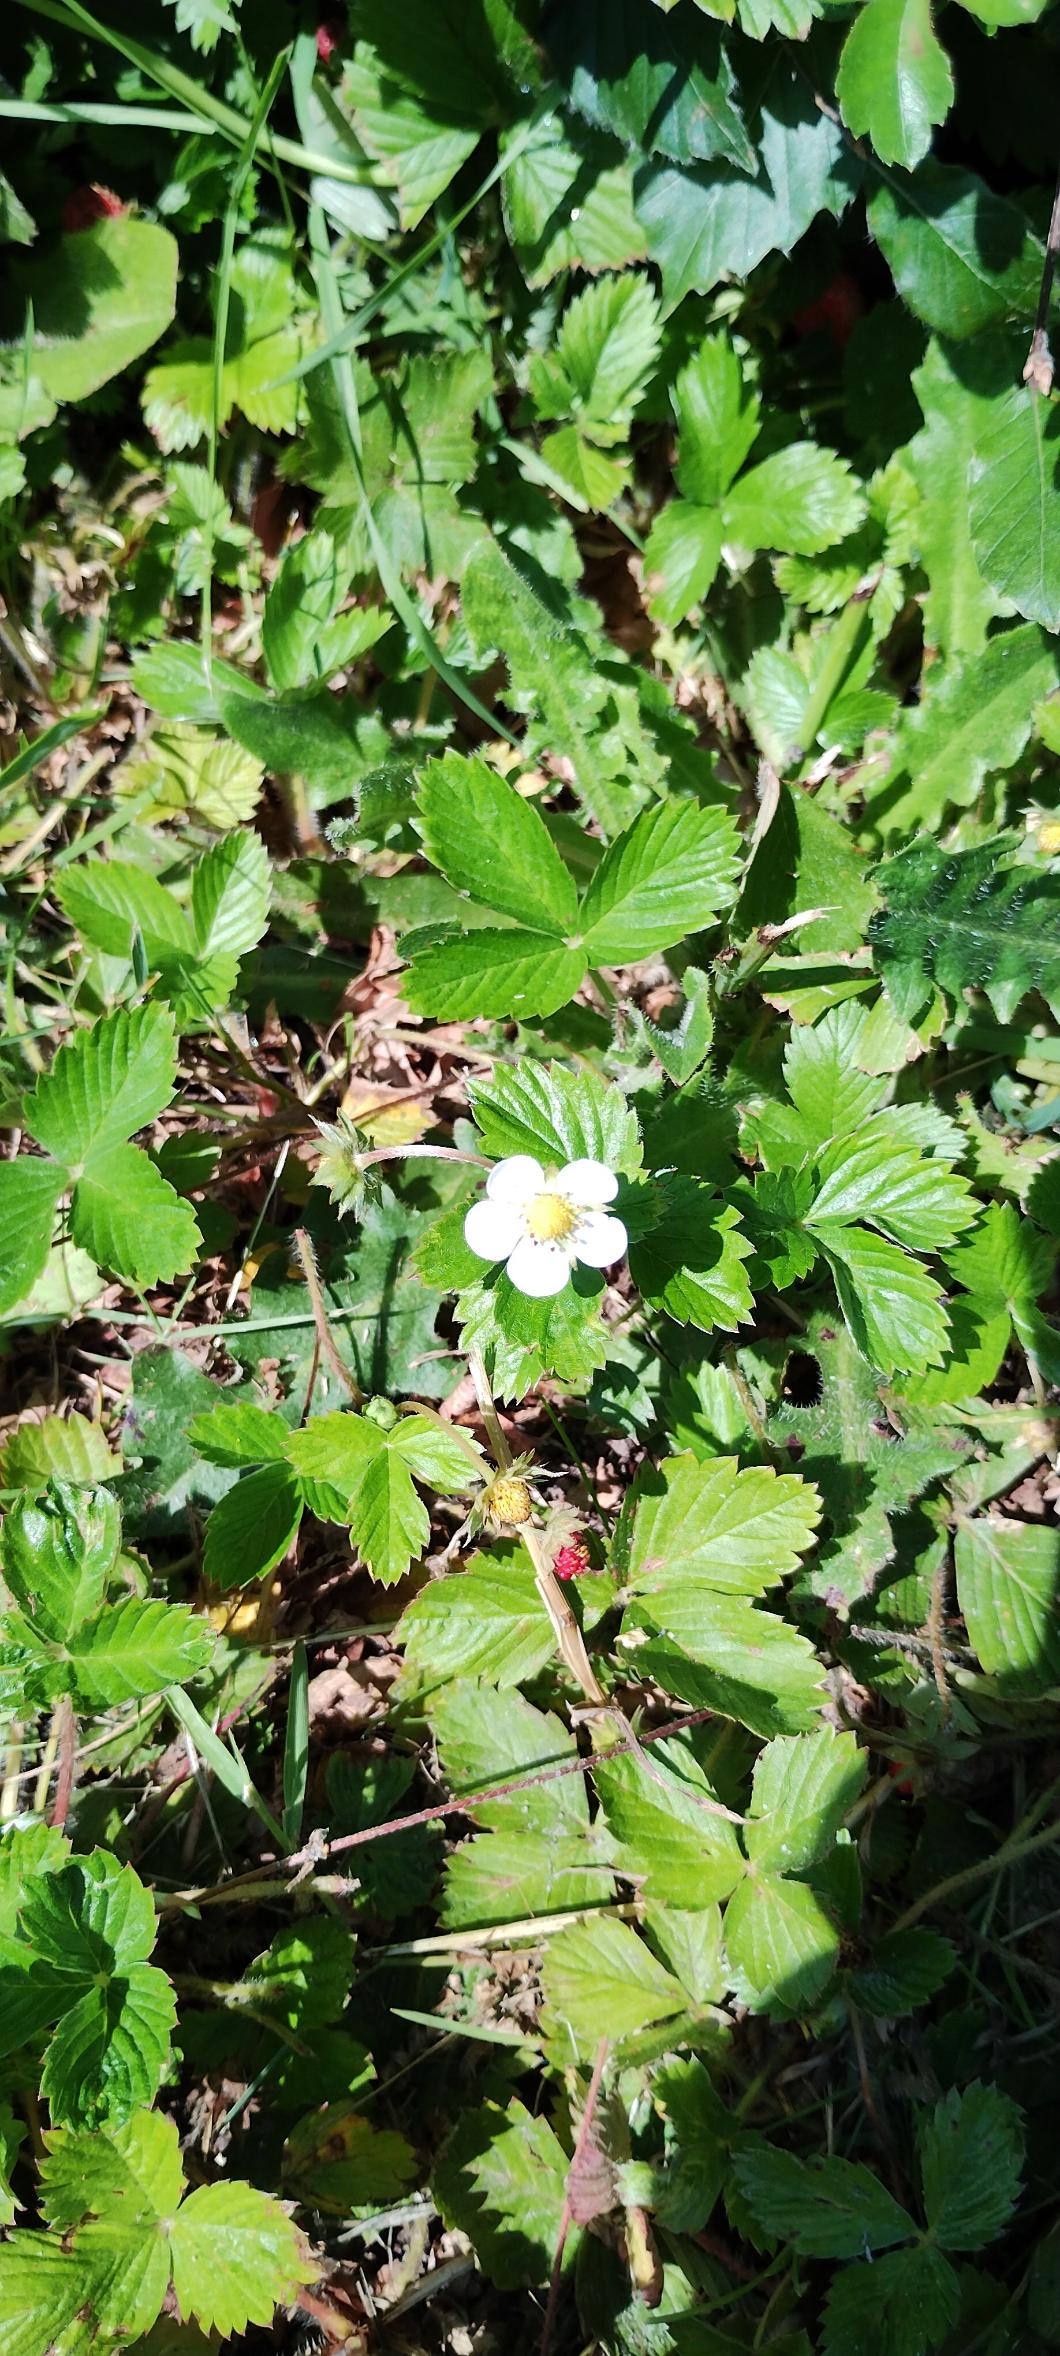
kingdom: Plantae
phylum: Tracheophyta
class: Magnoliopsida
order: Rosales
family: Rosaceae
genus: Fragaria
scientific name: Fragaria vesca
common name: Skov-jordbær
